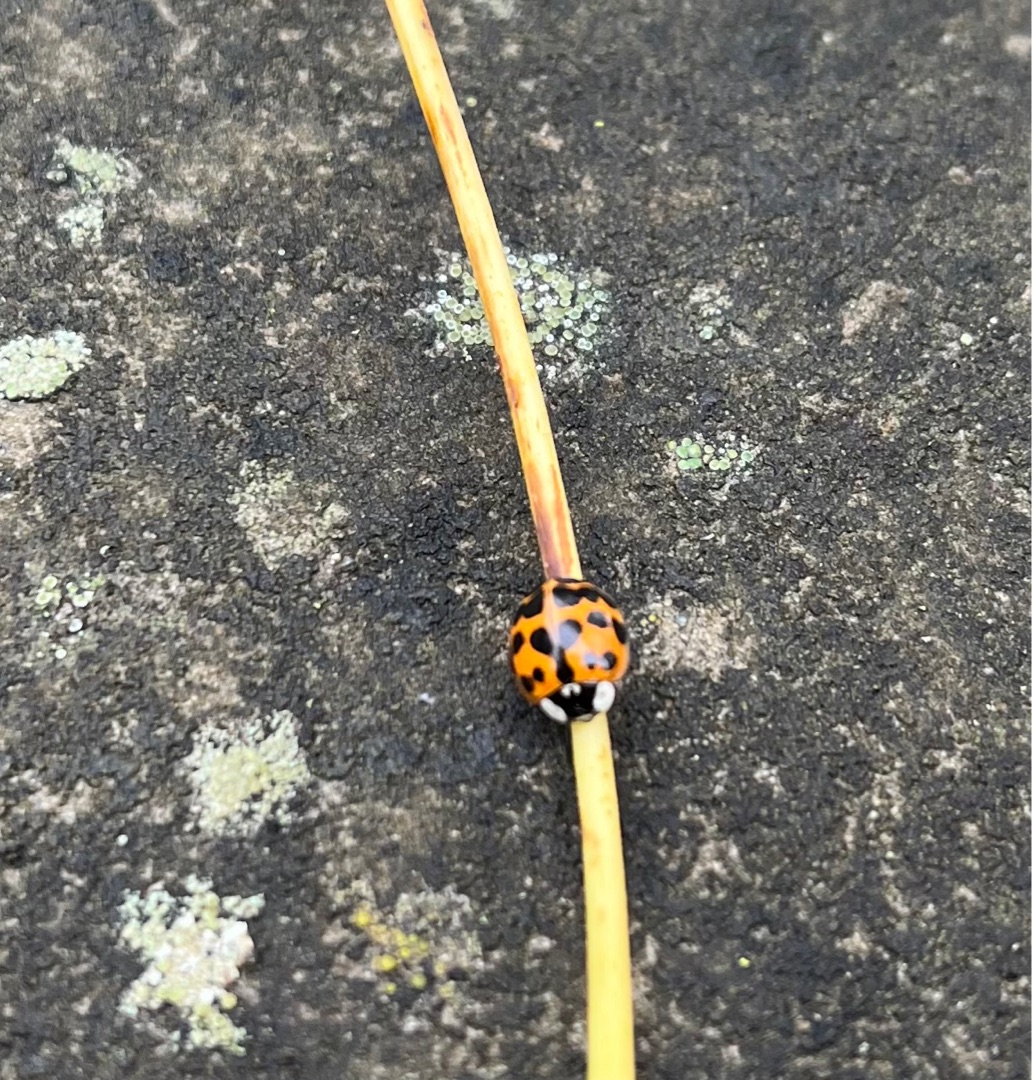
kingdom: Animalia
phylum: Arthropoda
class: Insecta
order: Coleoptera
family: Coccinellidae
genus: Harmonia
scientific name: Harmonia axyridis
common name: Harlekinmariehøne
